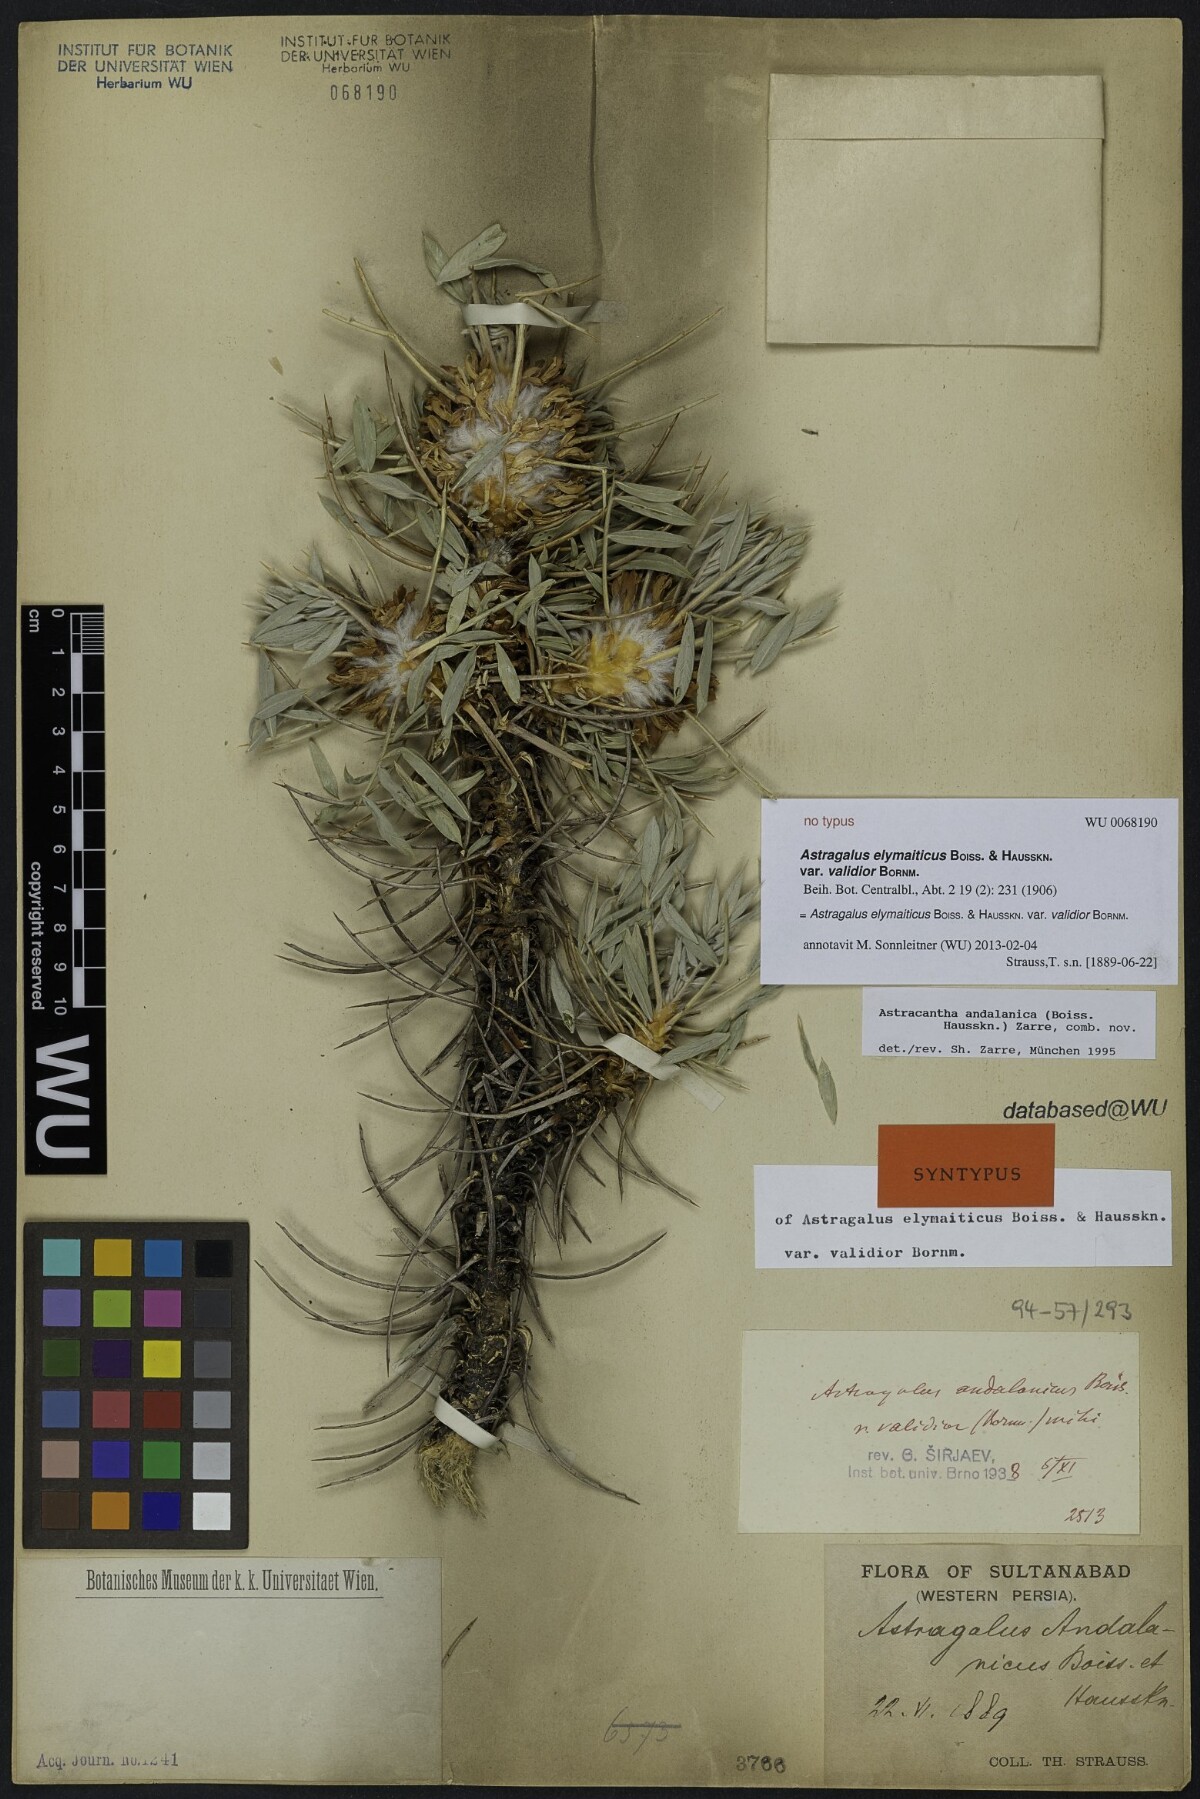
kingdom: Plantae
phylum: Tracheophyta
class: Magnoliopsida
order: Fabales
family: Fabaceae
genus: Astragalus
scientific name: Astragalus andalanicus
